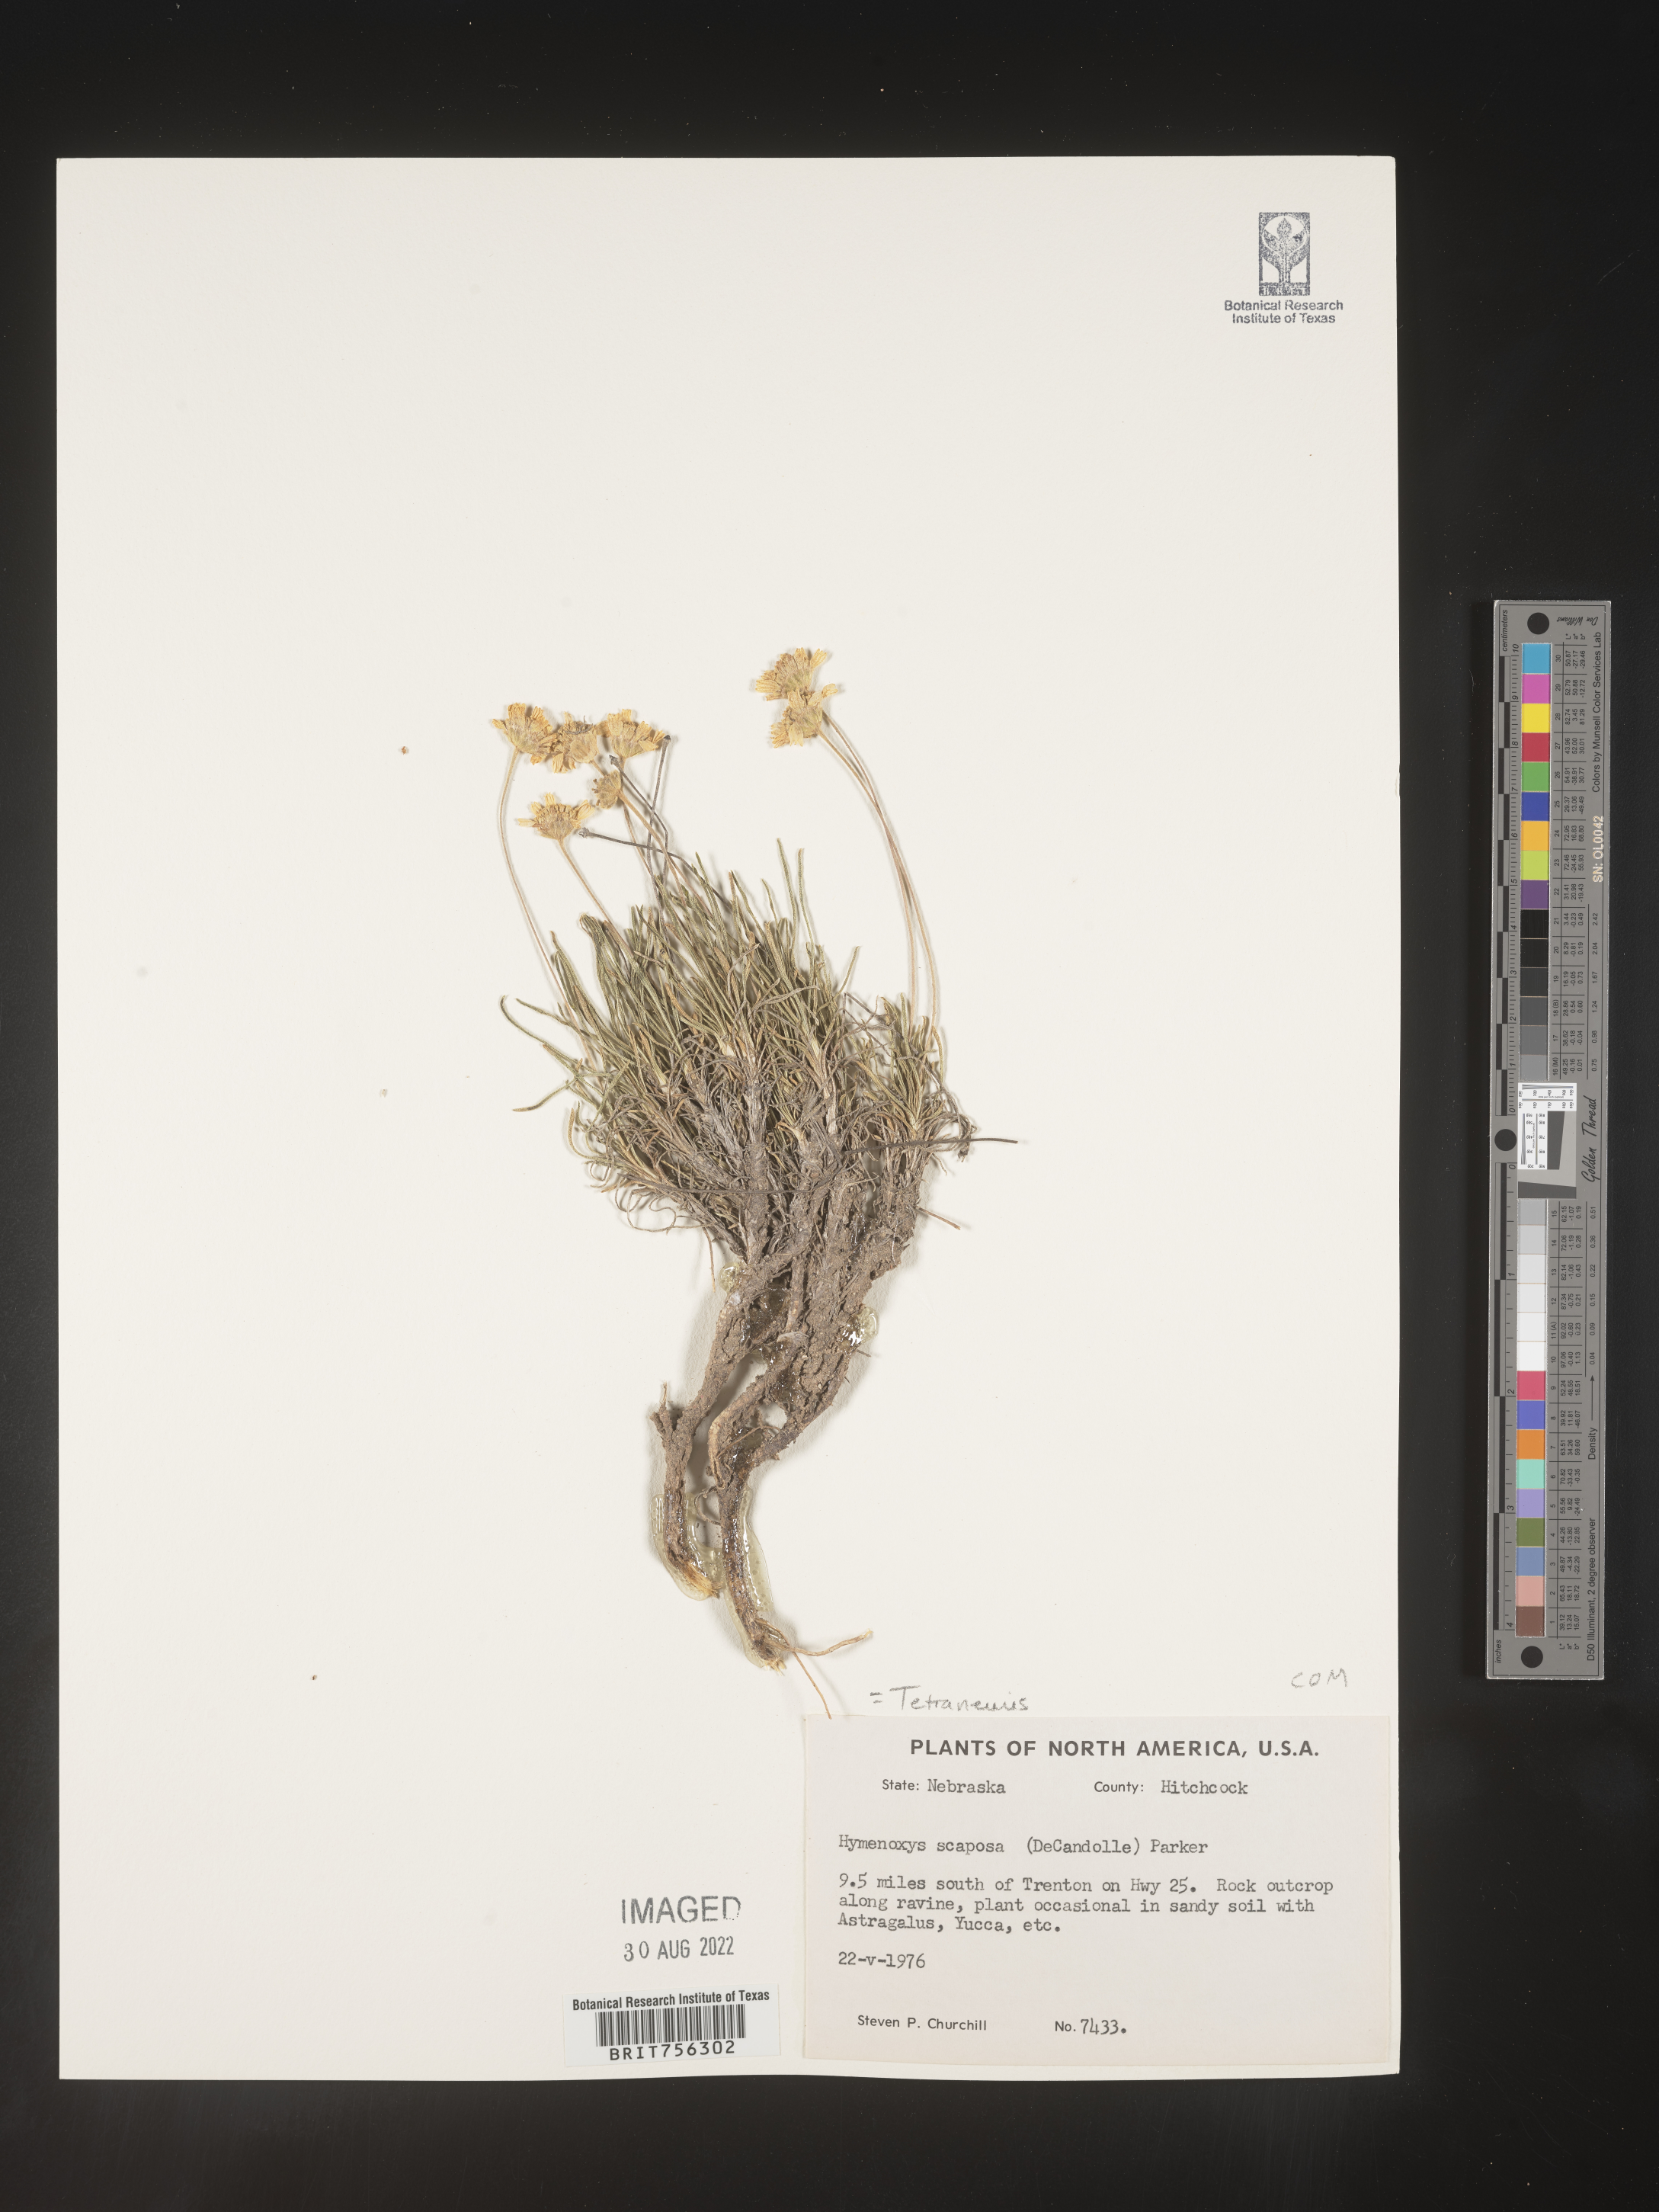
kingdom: Plantae
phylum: Tracheophyta
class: Magnoliopsida
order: Asterales
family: Asteraceae
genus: Tetraneuris
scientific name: Tetraneuris scaposa
